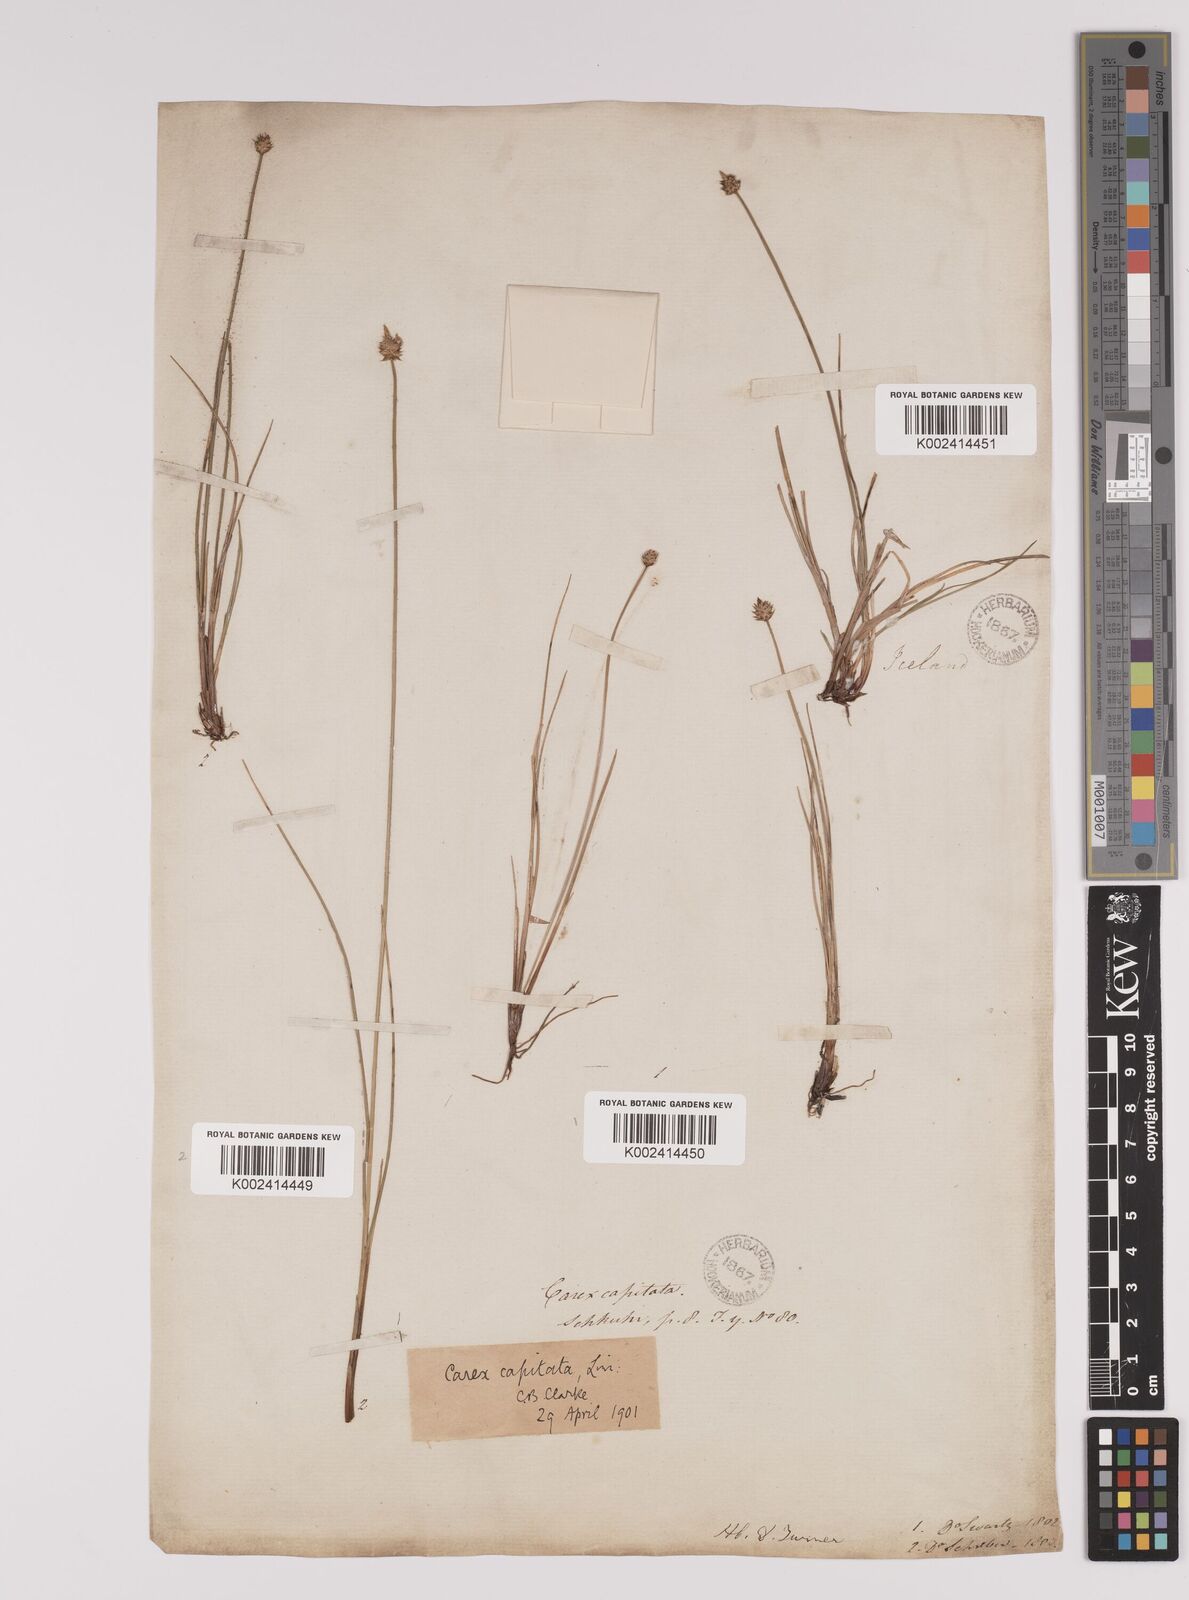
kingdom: Plantae
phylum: Tracheophyta
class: Liliopsida
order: Poales
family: Cyperaceae
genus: Carex
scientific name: Carex capitata
